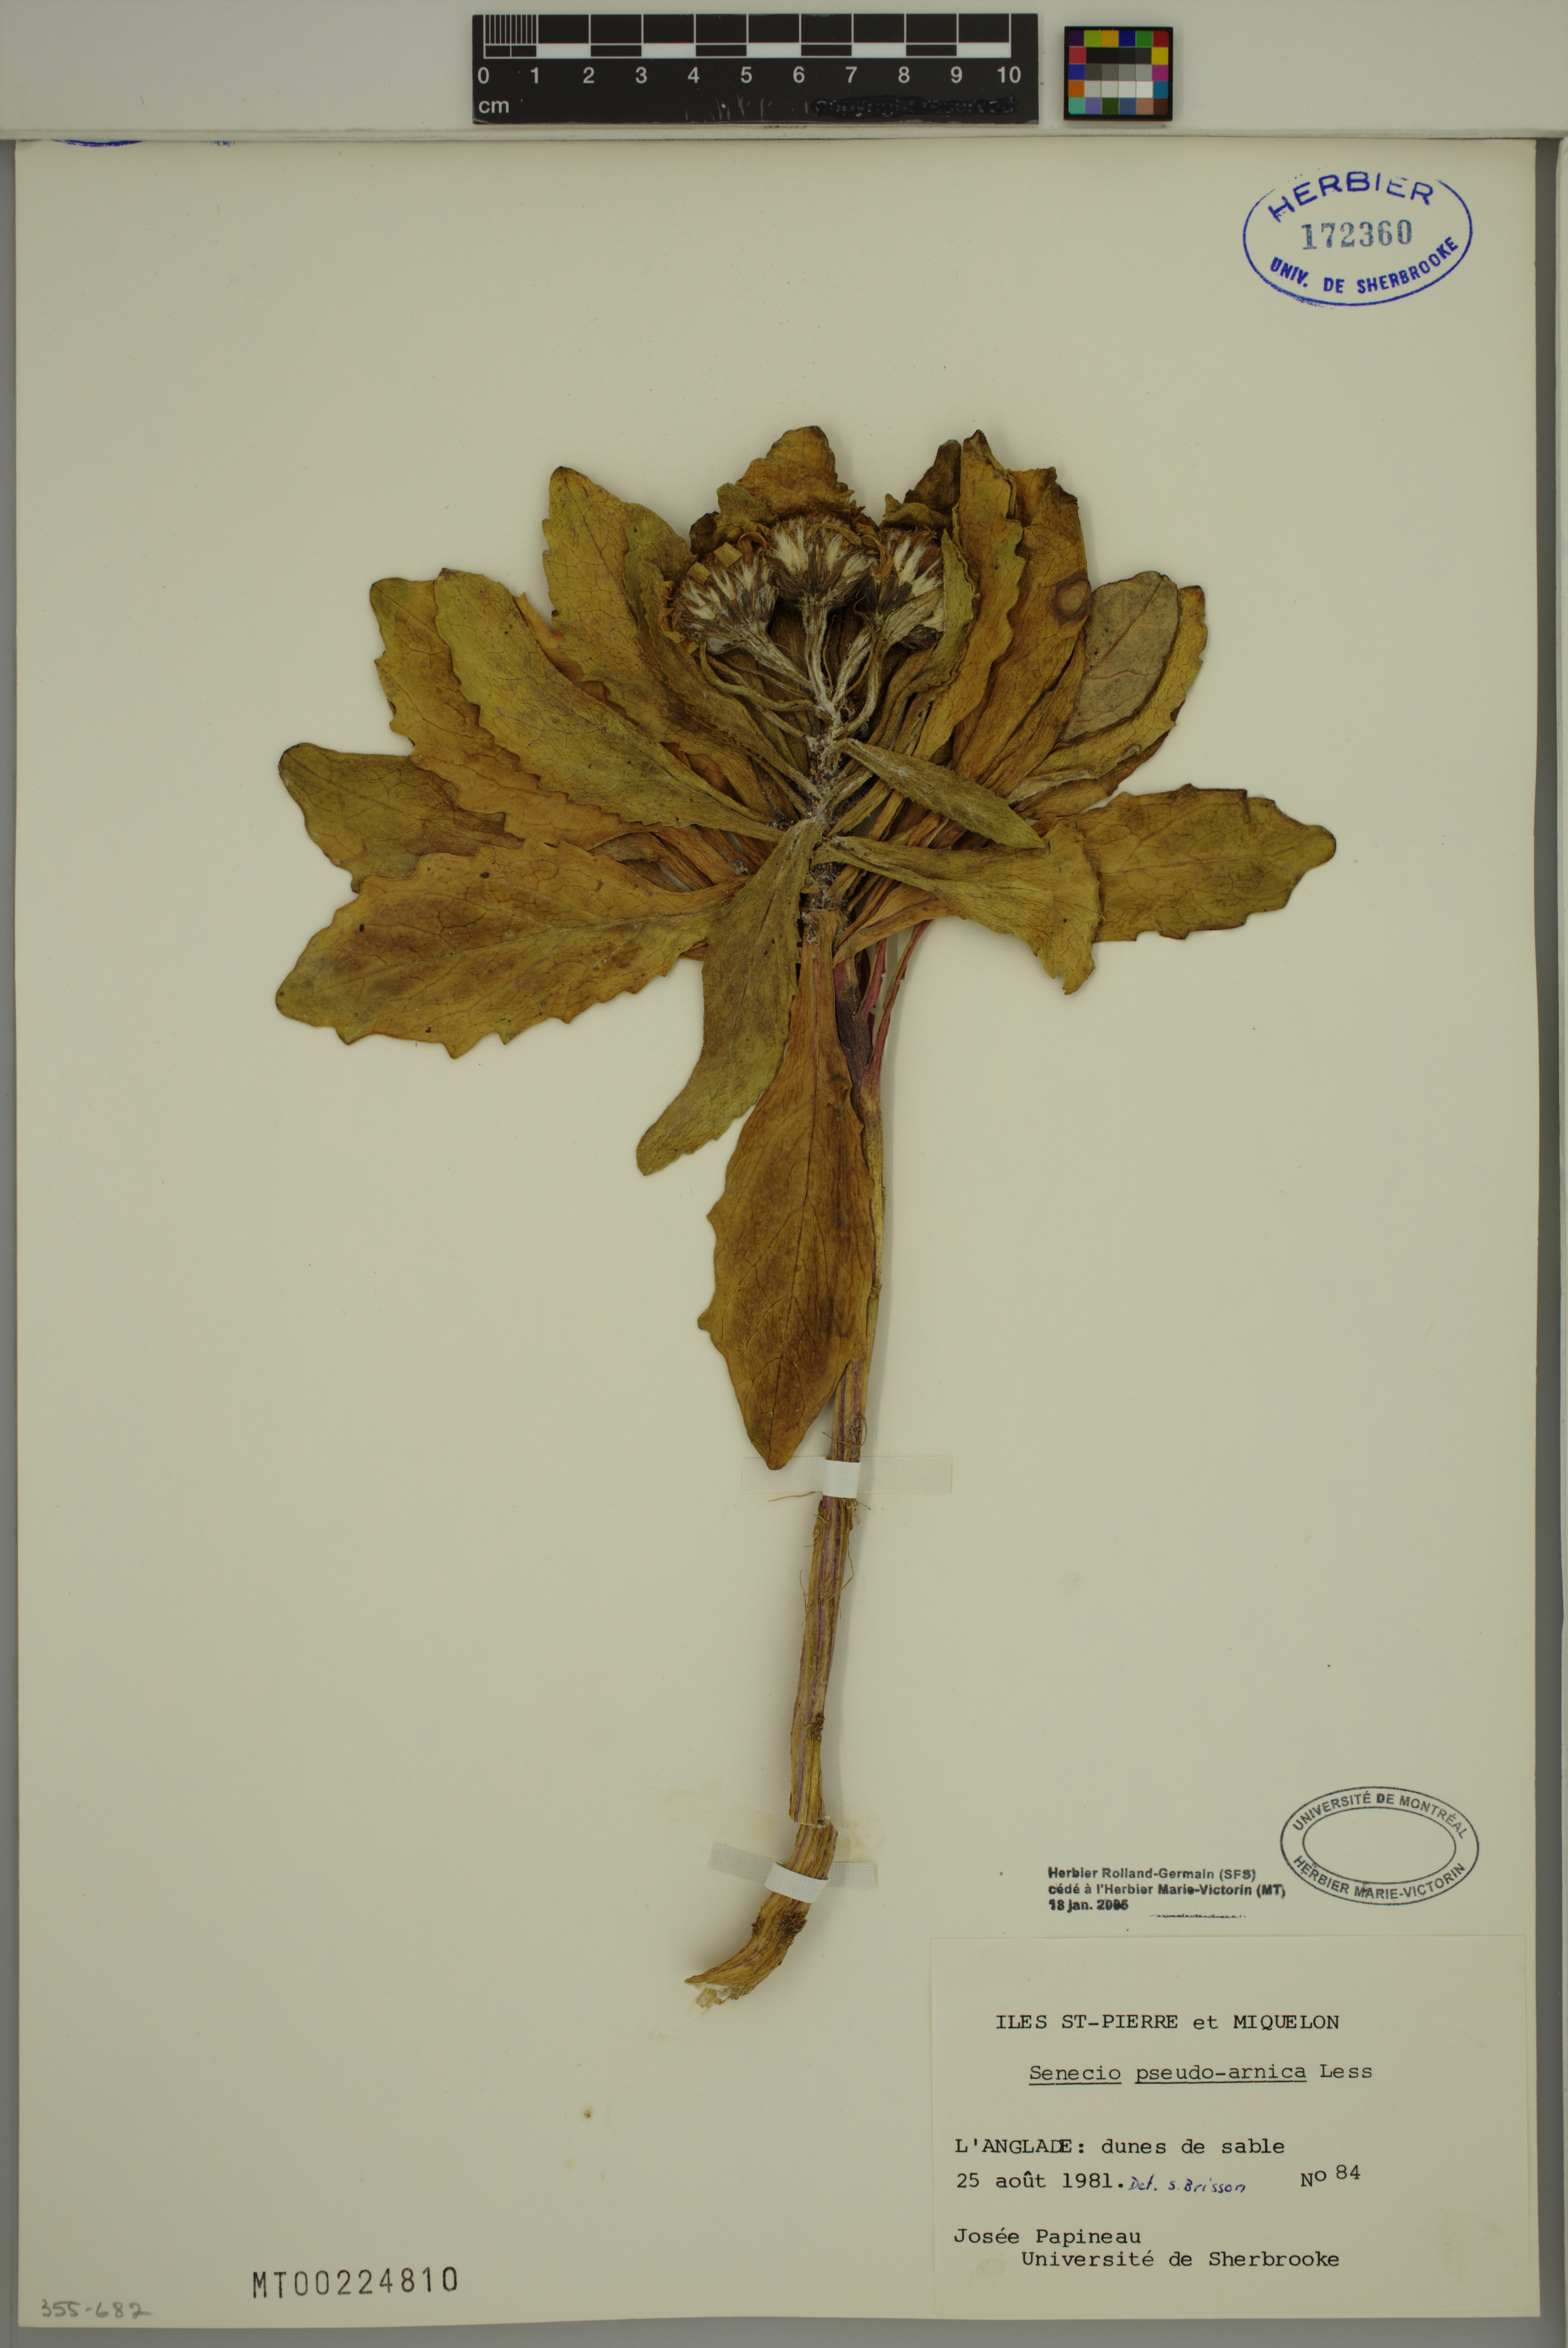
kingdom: Plantae
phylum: Tracheophyta
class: Magnoliopsida
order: Asterales
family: Asteraceae
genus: Jacobaea
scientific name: Jacobaea pseudoarnica
